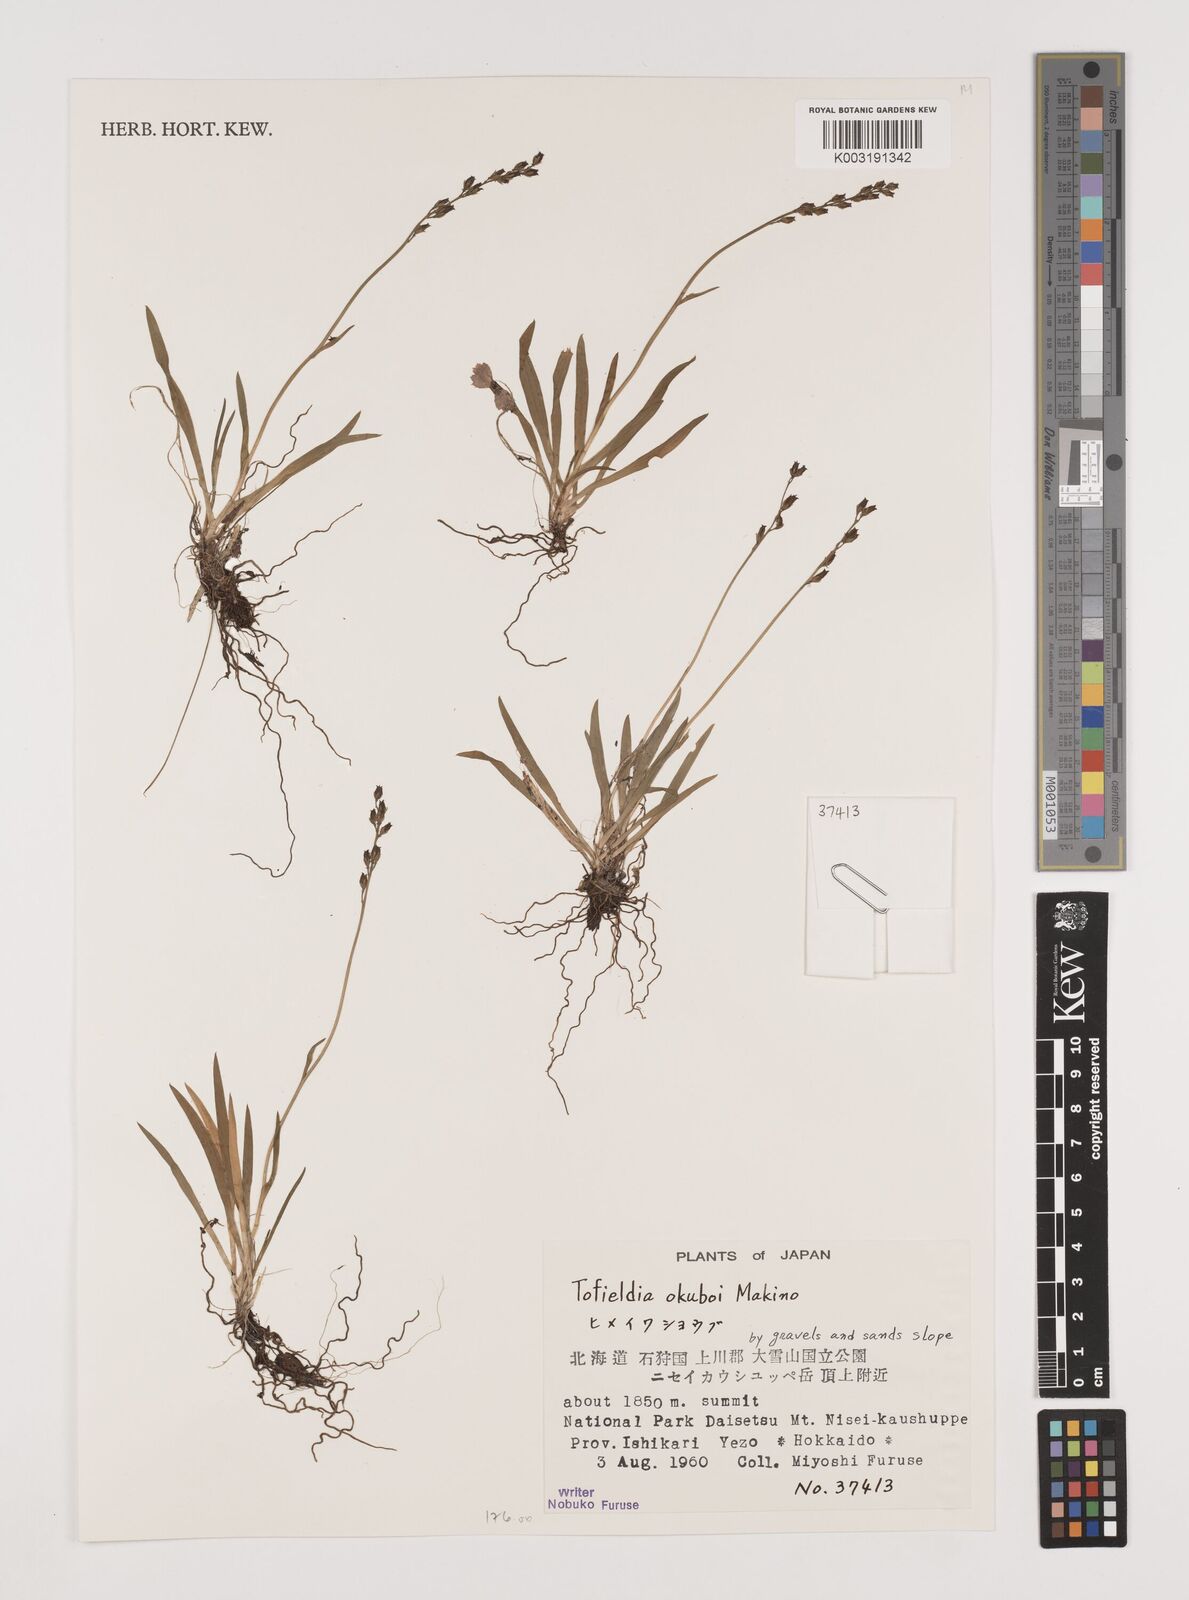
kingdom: Plantae
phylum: Tracheophyta
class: Liliopsida
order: Alismatales
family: Tofieldiaceae
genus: Tofieldia
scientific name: Tofieldia okuboi
